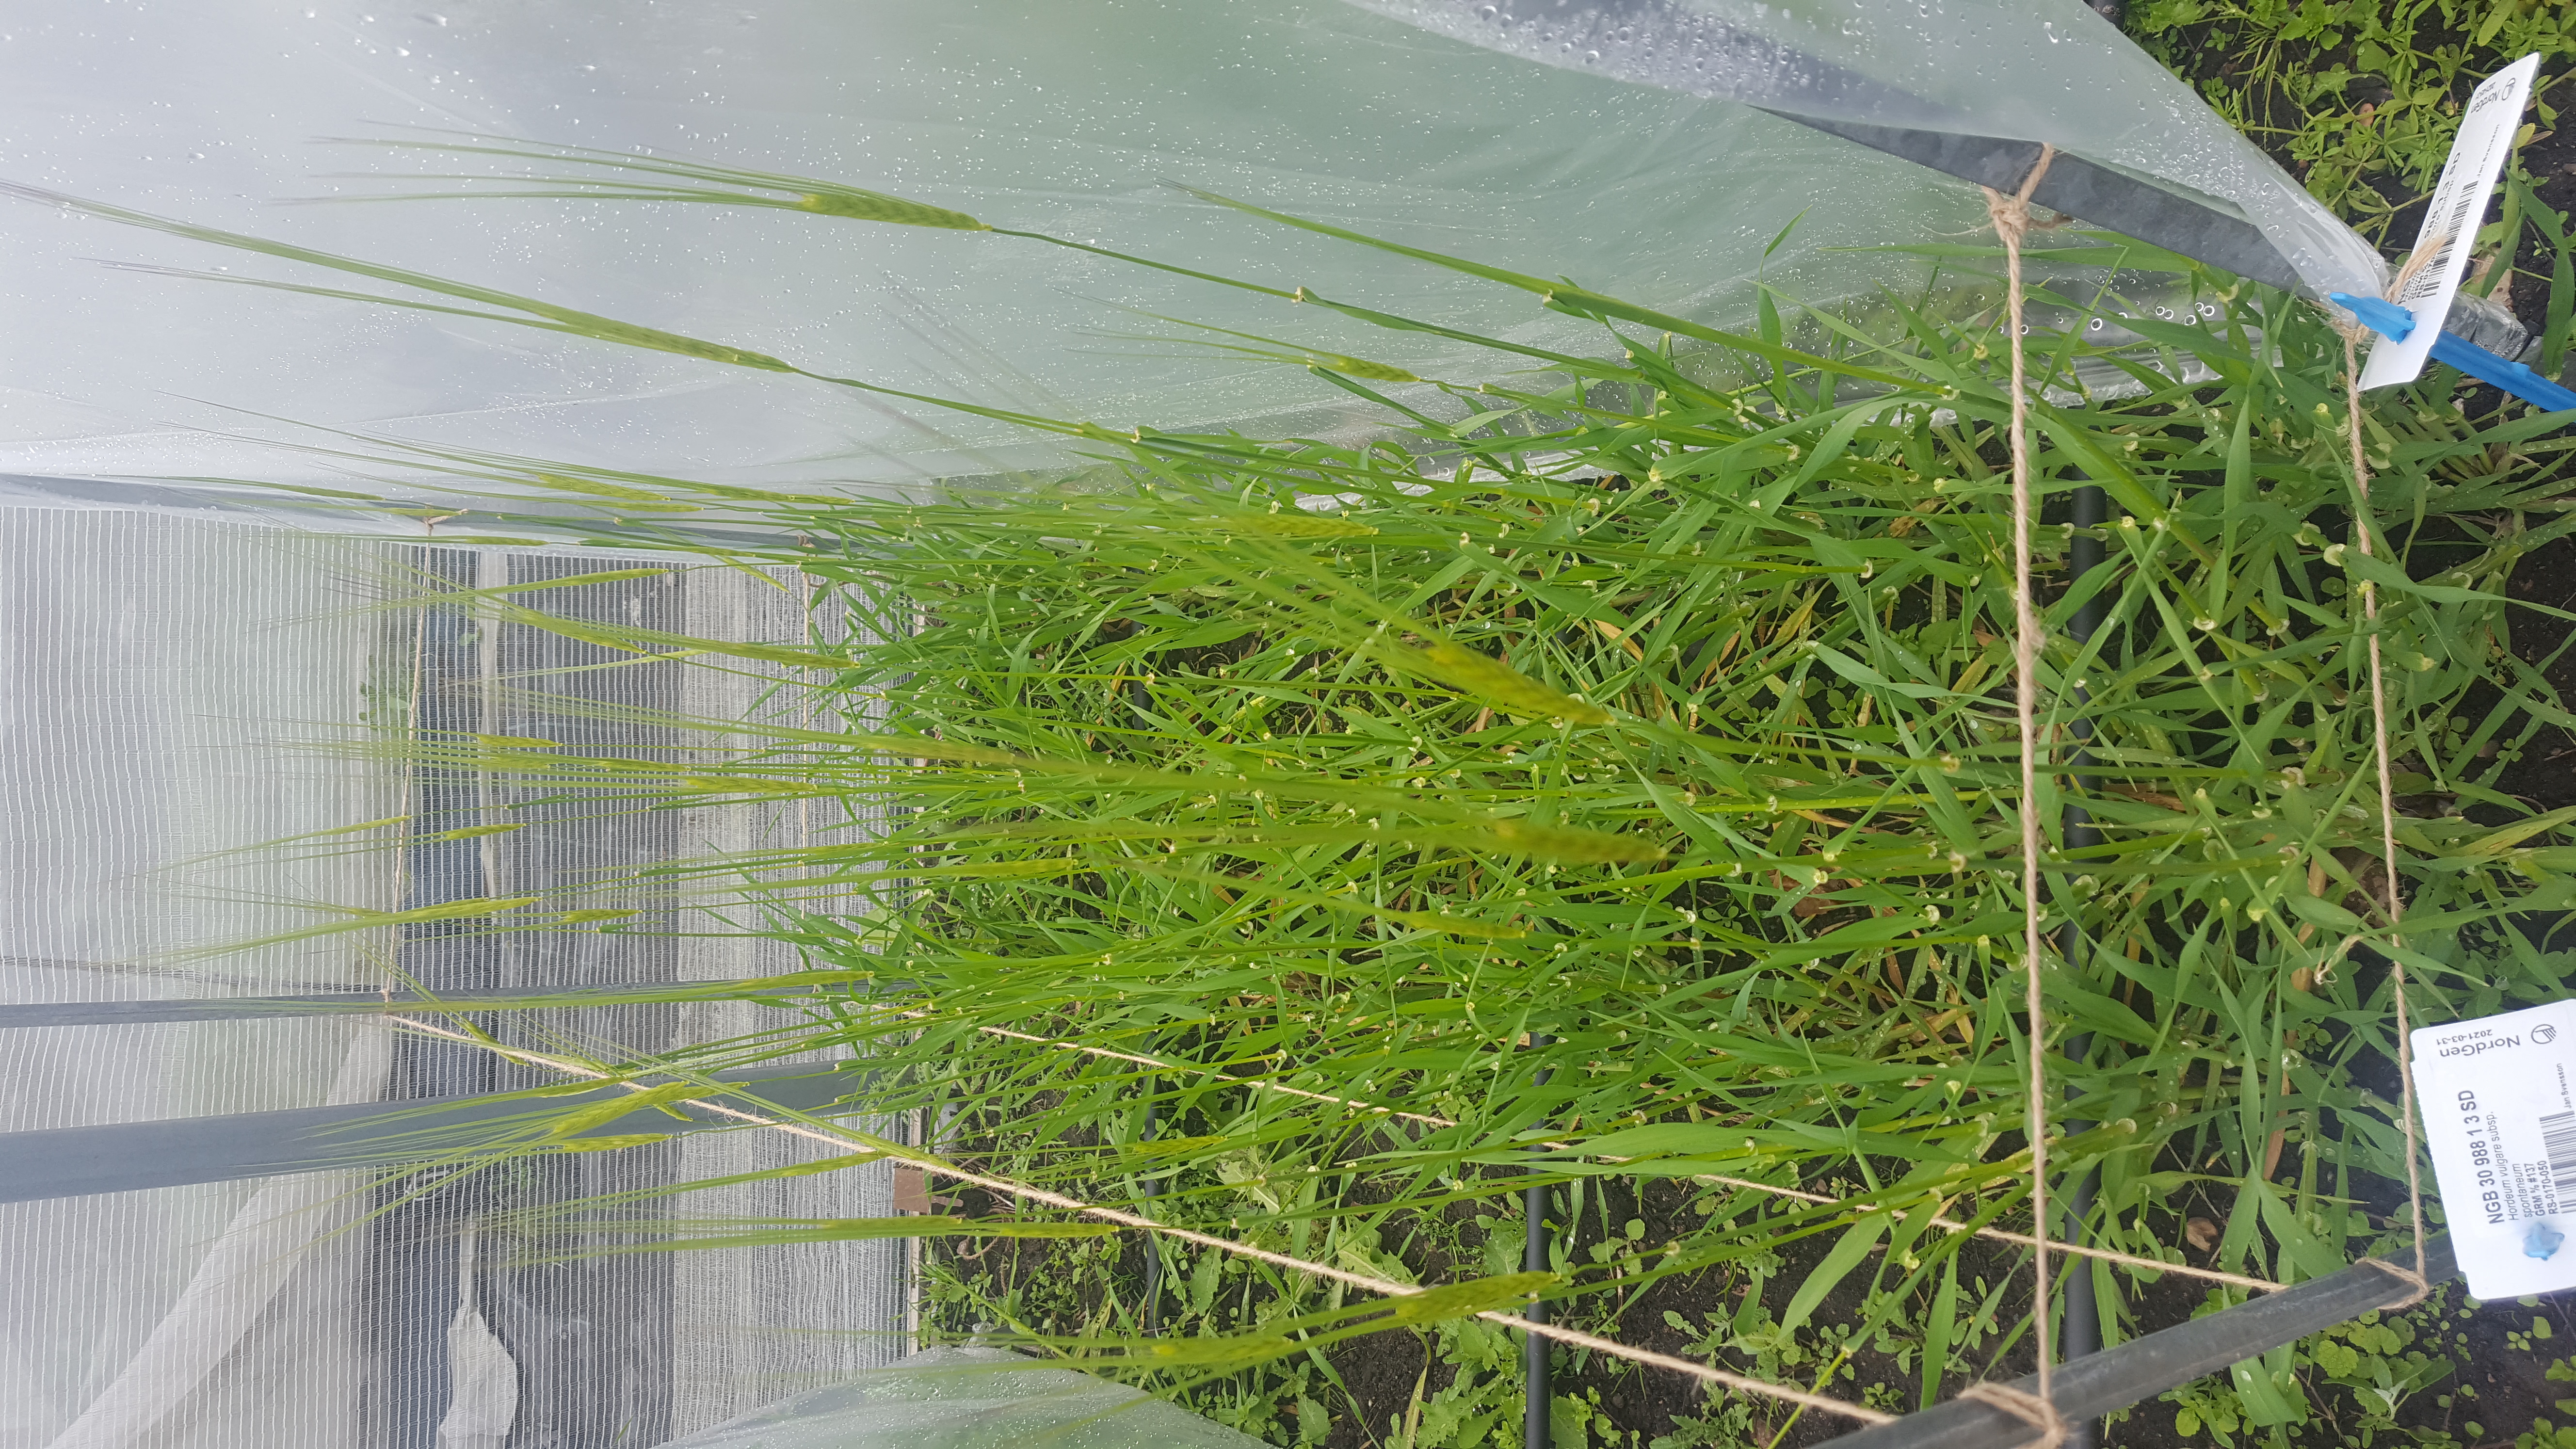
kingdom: Plantae
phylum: Tracheophyta
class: Liliopsida
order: Poales
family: Poaceae
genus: Hordeum
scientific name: Hordeum spontaneum
